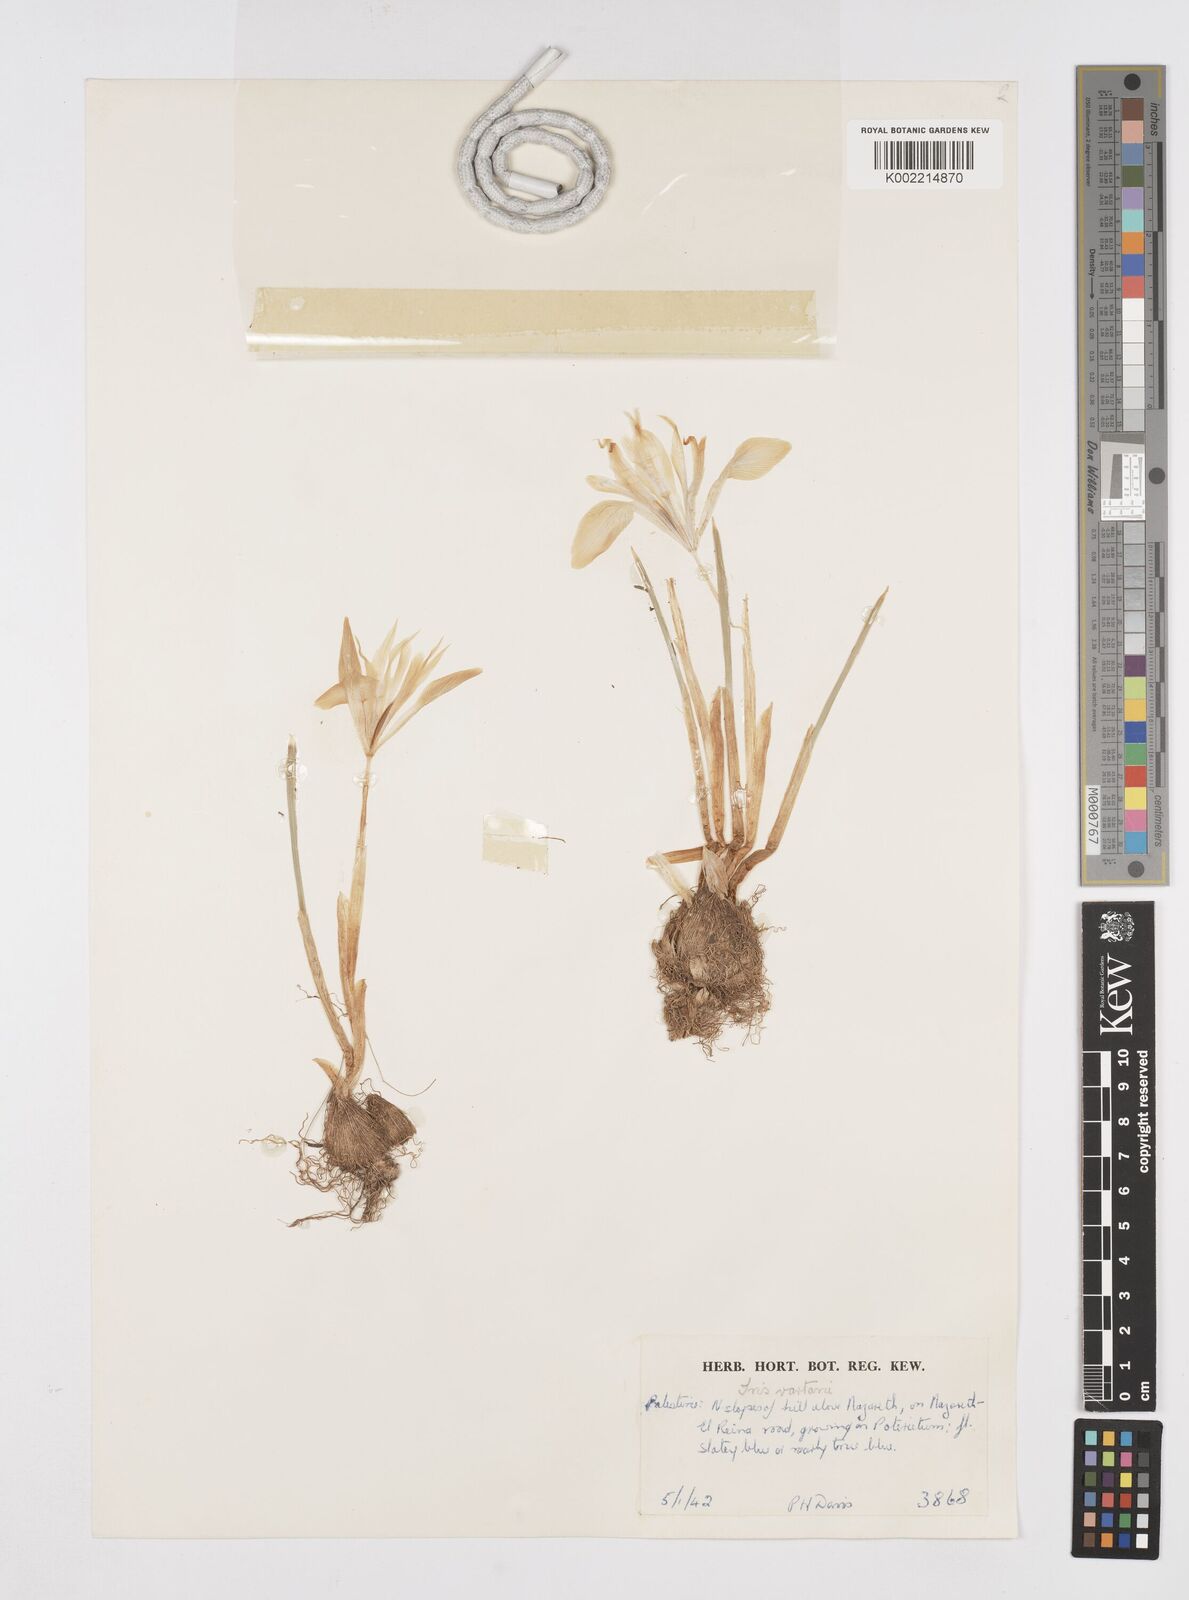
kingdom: Plantae
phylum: Tracheophyta
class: Liliopsida
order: Asparagales
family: Iridaceae
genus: Iris
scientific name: Iris vartanii
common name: Vartanii iris
